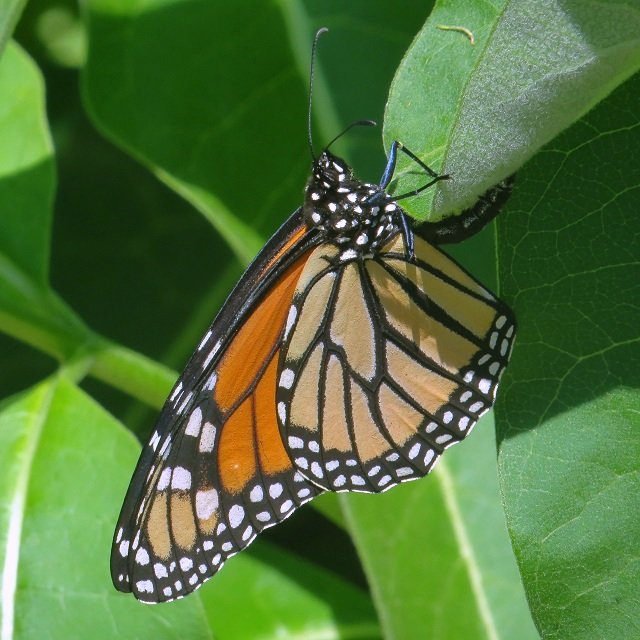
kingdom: Animalia
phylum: Arthropoda
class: Insecta
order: Lepidoptera
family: Nymphalidae
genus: Danaus
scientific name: Danaus plexippus
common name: Monarch
